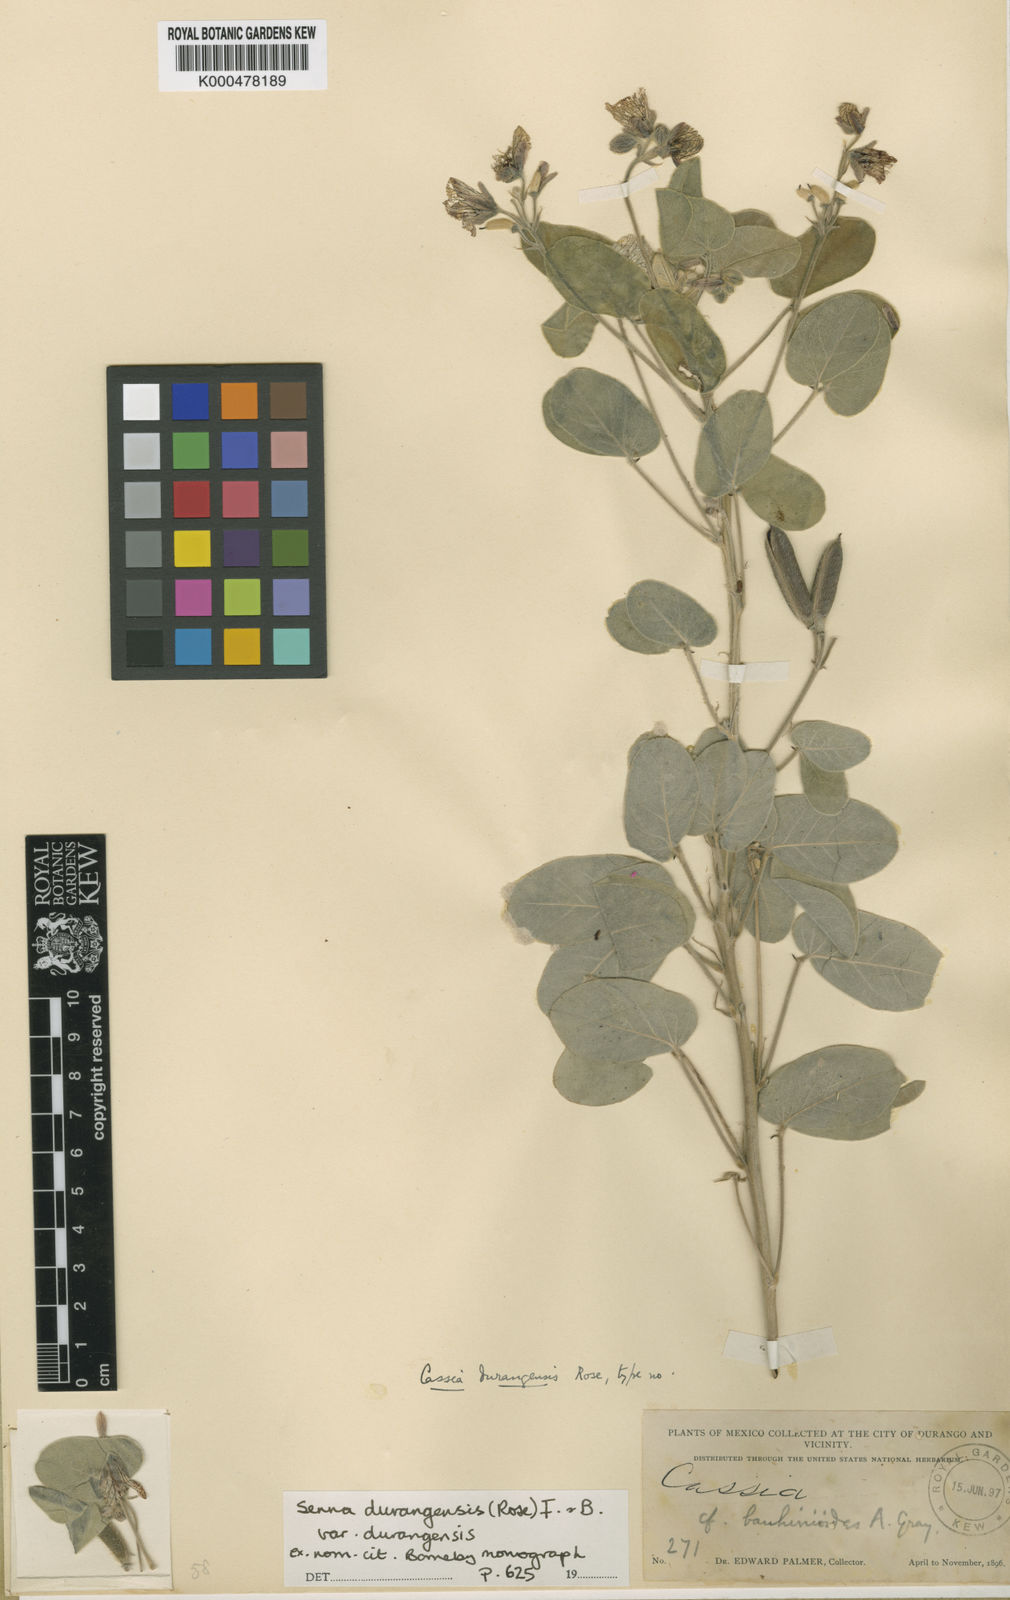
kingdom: Plantae
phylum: Tracheophyta
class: Magnoliopsida
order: Fabales
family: Fabaceae
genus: Senna
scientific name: Senna durangensis
